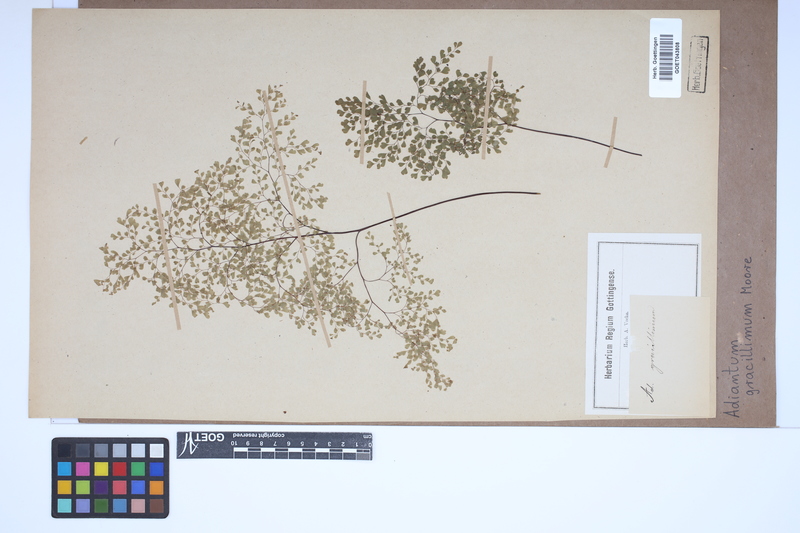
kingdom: Plantae
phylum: Tracheophyta
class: Polypodiopsida
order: Polypodiales
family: Pteridaceae
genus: Adiantum
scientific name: Adiantum gracillimum
